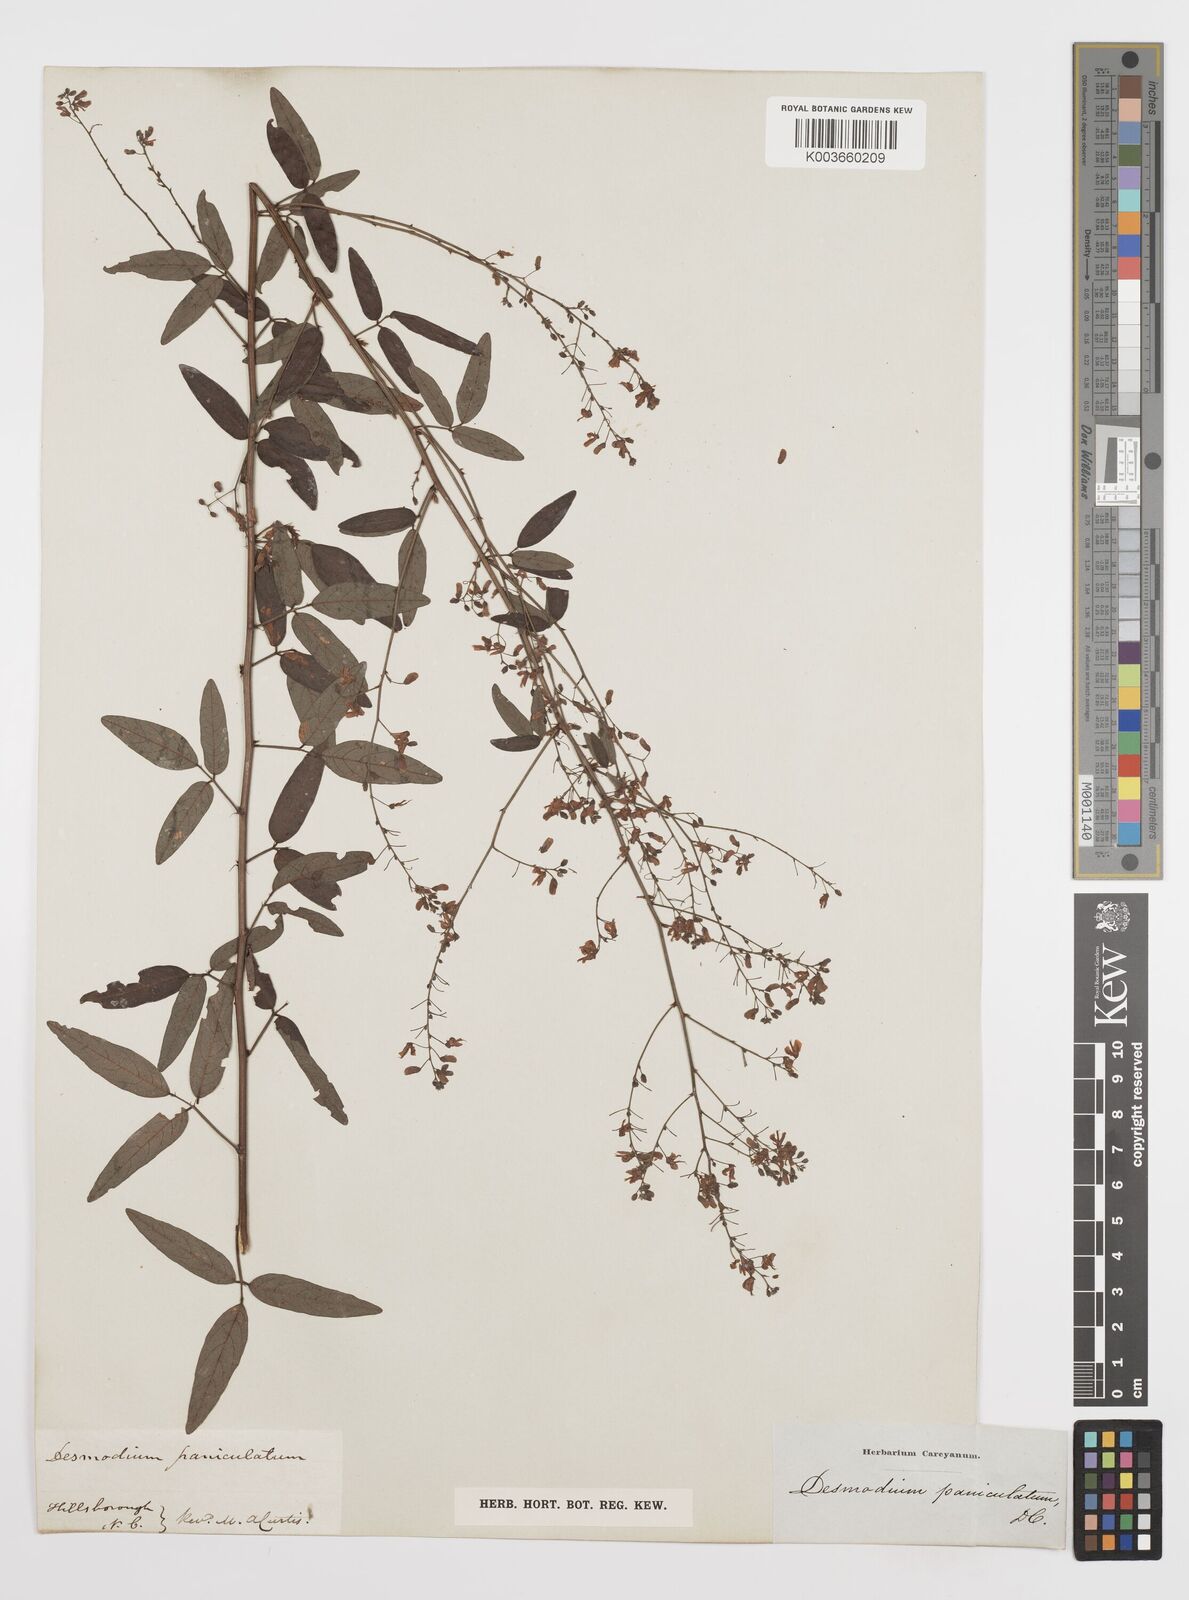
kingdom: Plantae
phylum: Tracheophyta
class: Magnoliopsida
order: Fabales
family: Fabaceae
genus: Desmodium
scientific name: Desmodium paniculatum
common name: Panicled tick-clover
